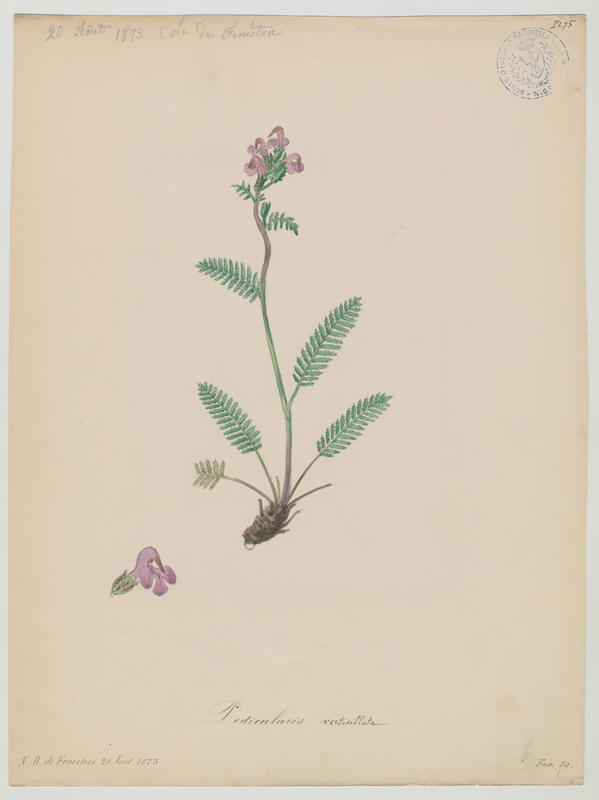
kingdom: Plantae
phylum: Tracheophyta
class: Magnoliopsida
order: Lamiales
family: Orobanchaceae
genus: Pedicularis
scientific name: Pedicularis verticillata
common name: Whorled lousewort
